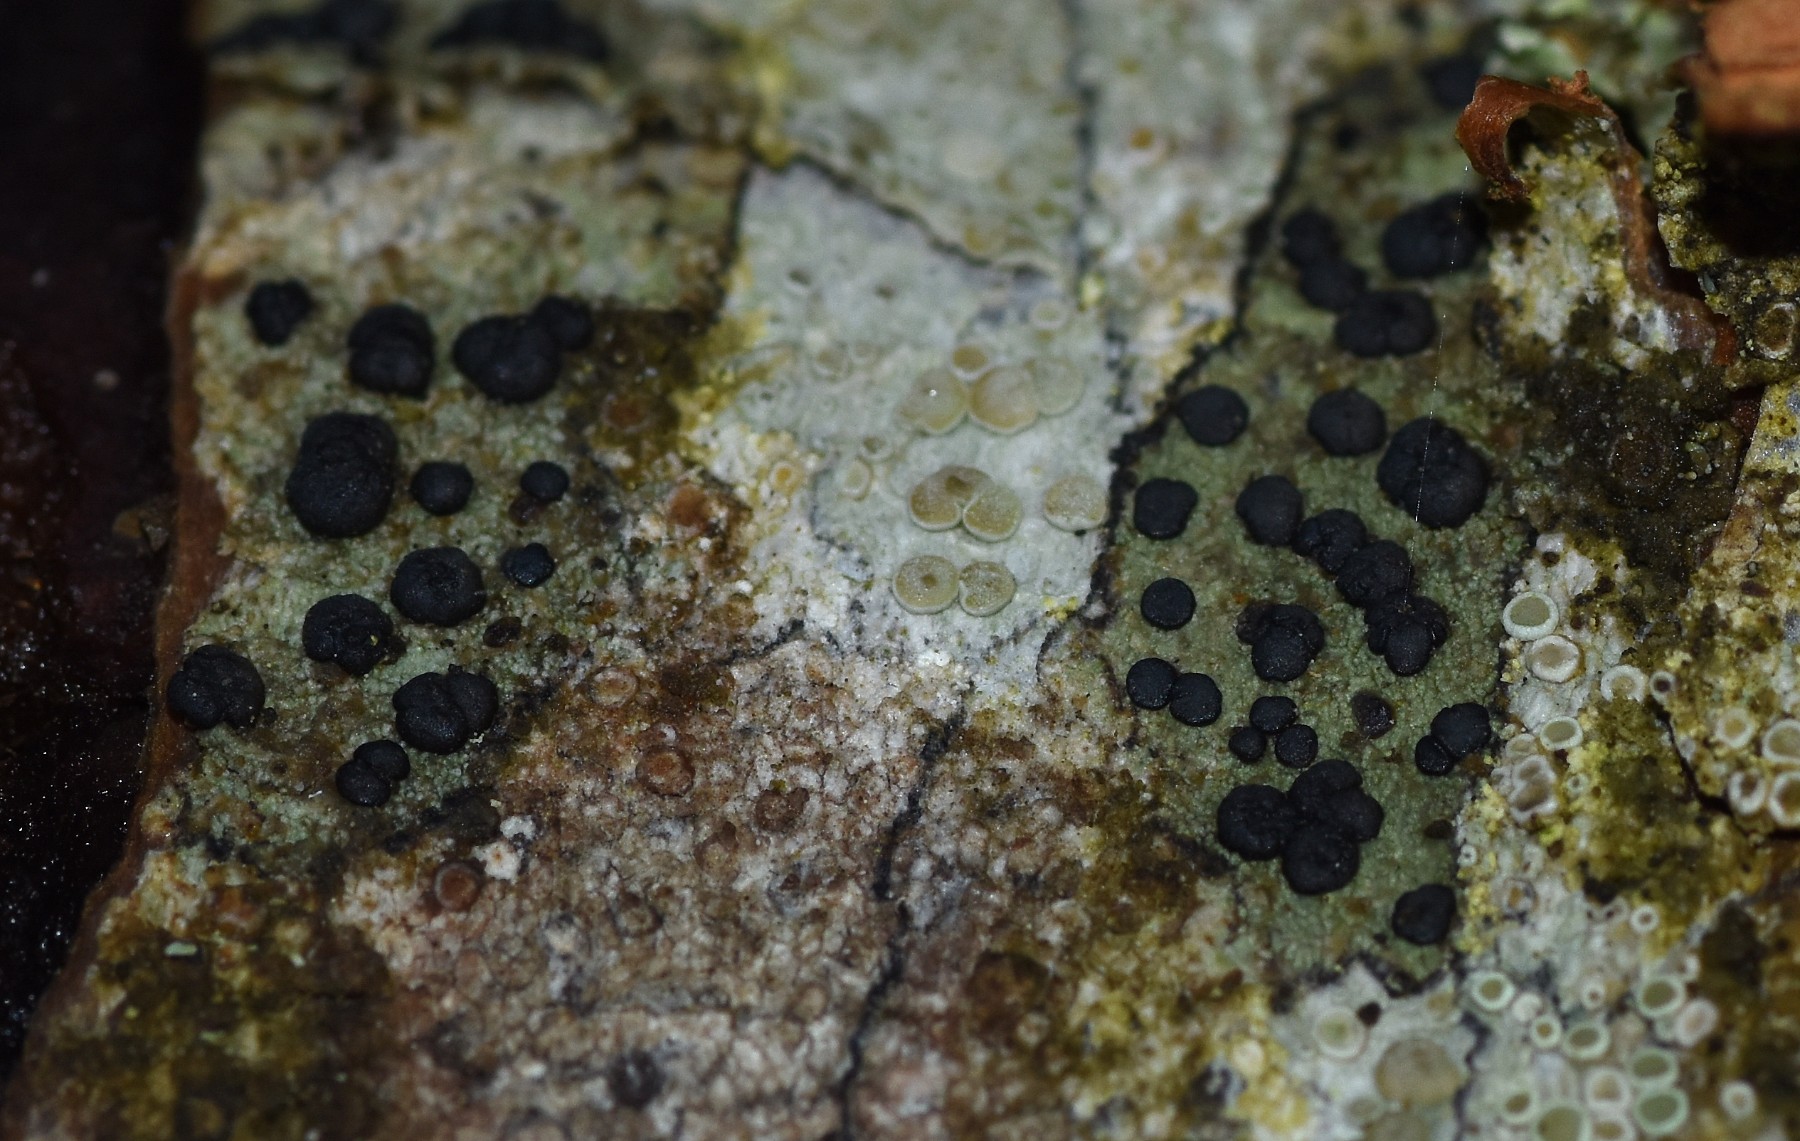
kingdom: Fungi
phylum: Ascomycota
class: Lecanoromycetes
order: Lecanorales
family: Lecanoraceae
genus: Lecidella
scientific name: Lecidella elaeochroma
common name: grågrøn skivelav
